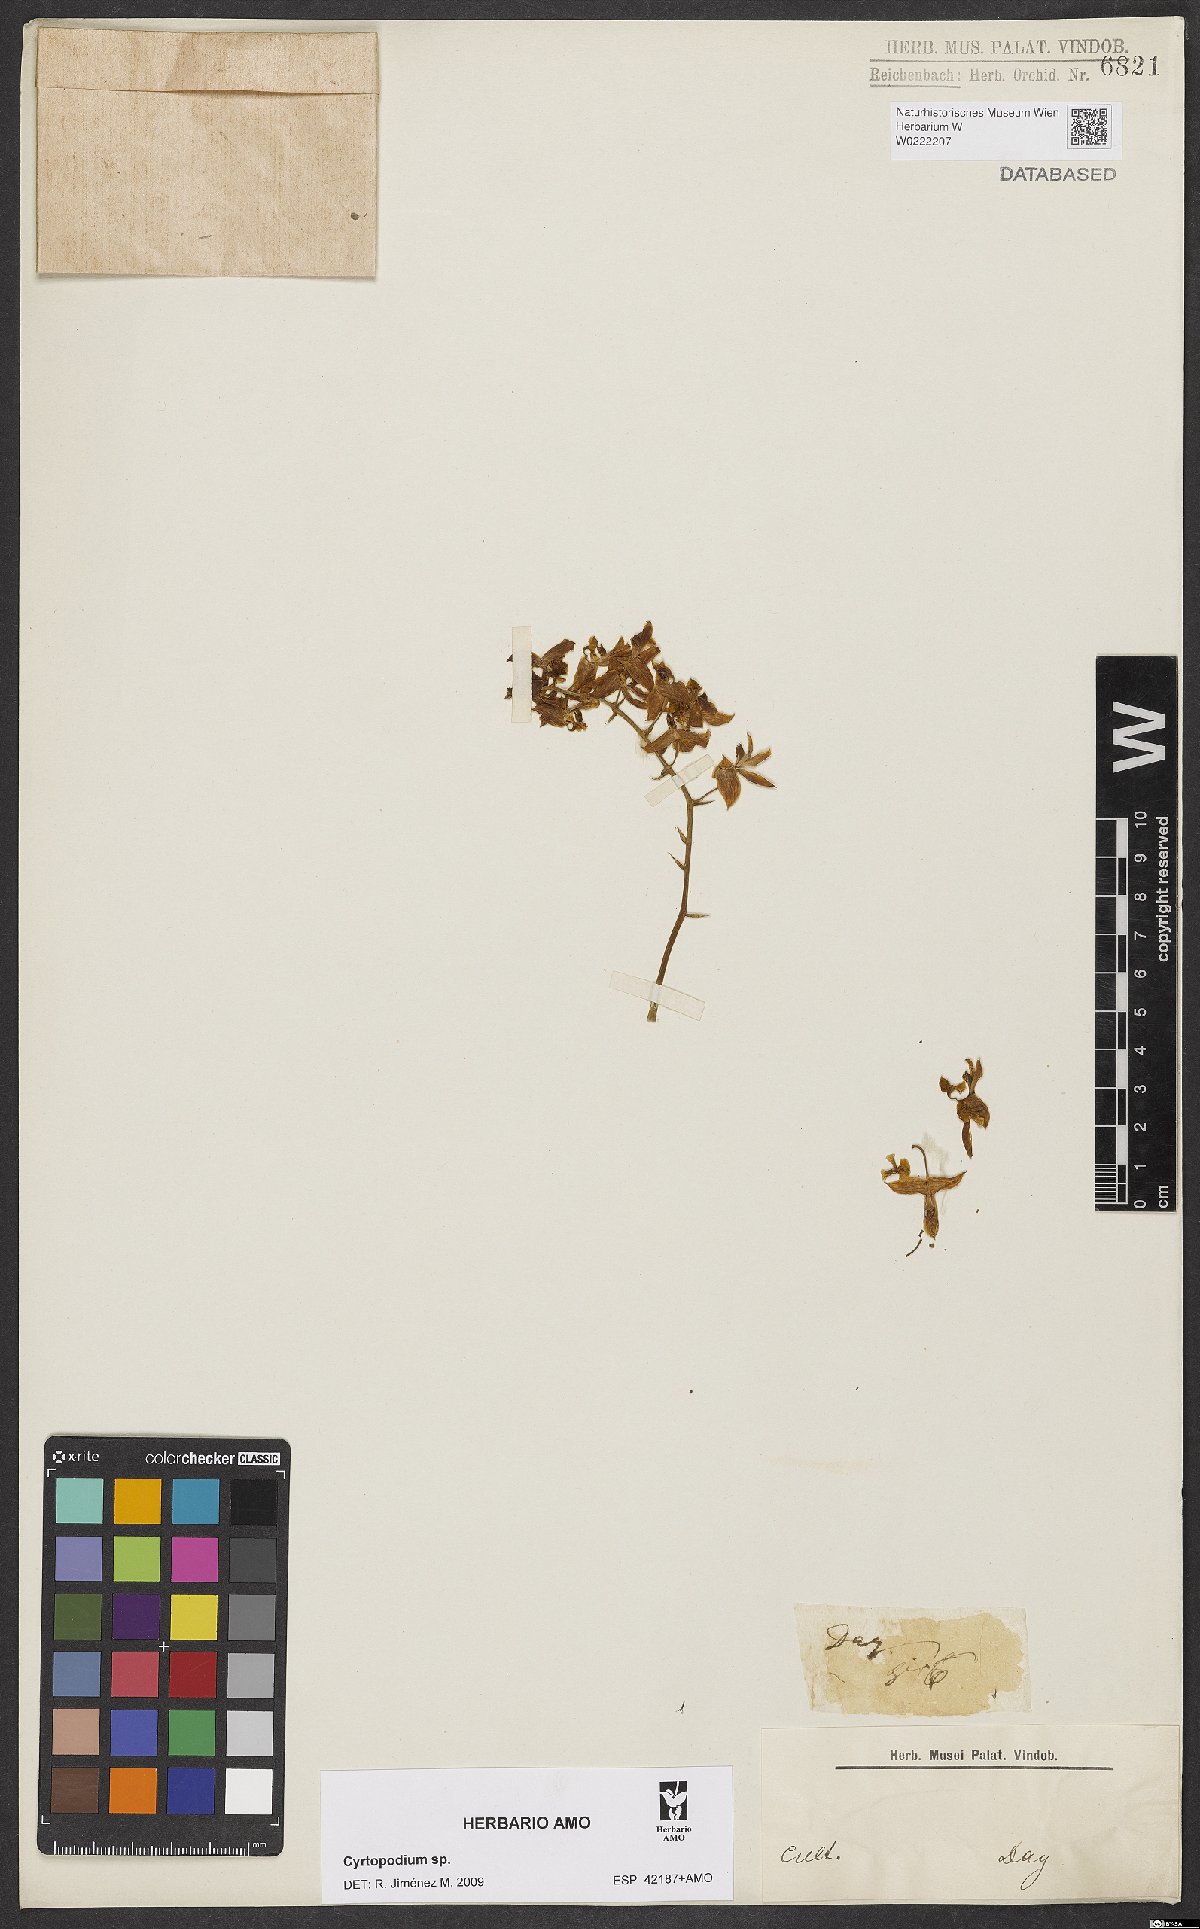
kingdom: Plantae
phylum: Tracheophyta
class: Liliopsida
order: Asparagales
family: Orchidaceae
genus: Cyrtopodium
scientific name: Cyrtopodium
